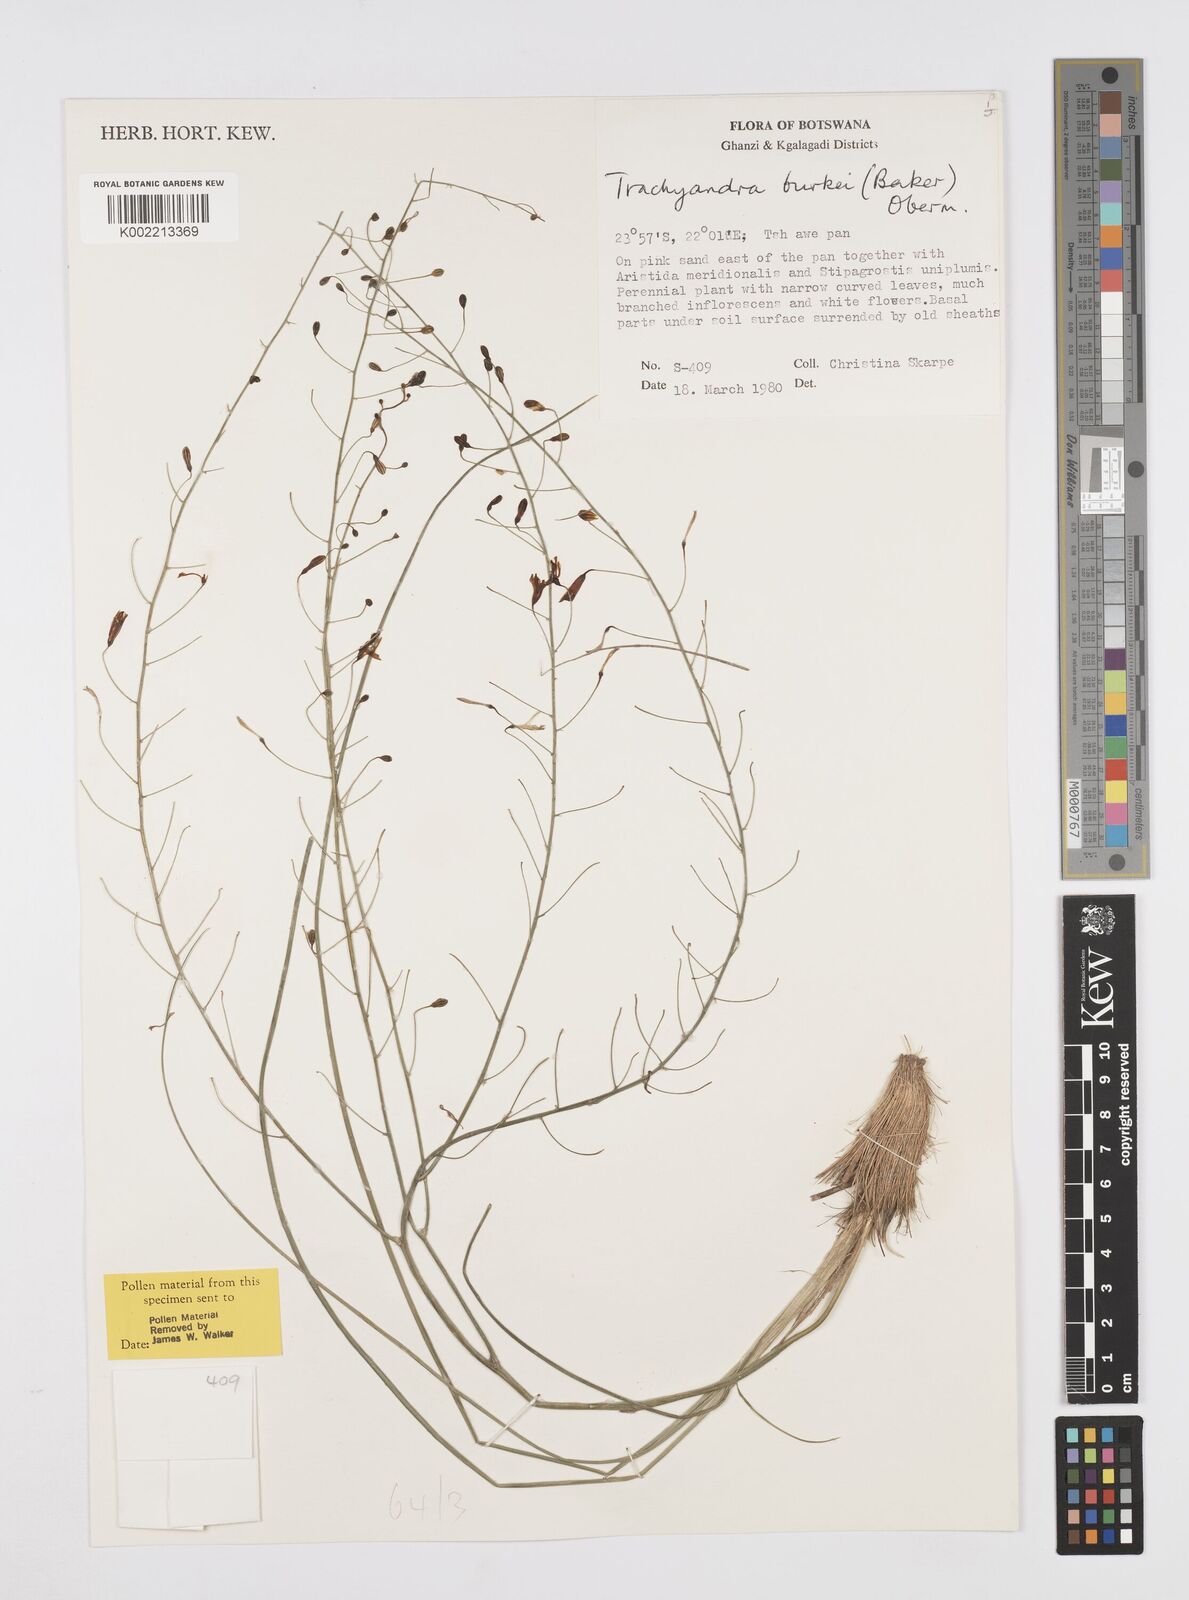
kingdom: Plantae
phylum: Tracheophyta
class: Liliopsida
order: Asparagales
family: Asphodelaceae
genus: Trachyandra
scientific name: Trachyandra burkei
